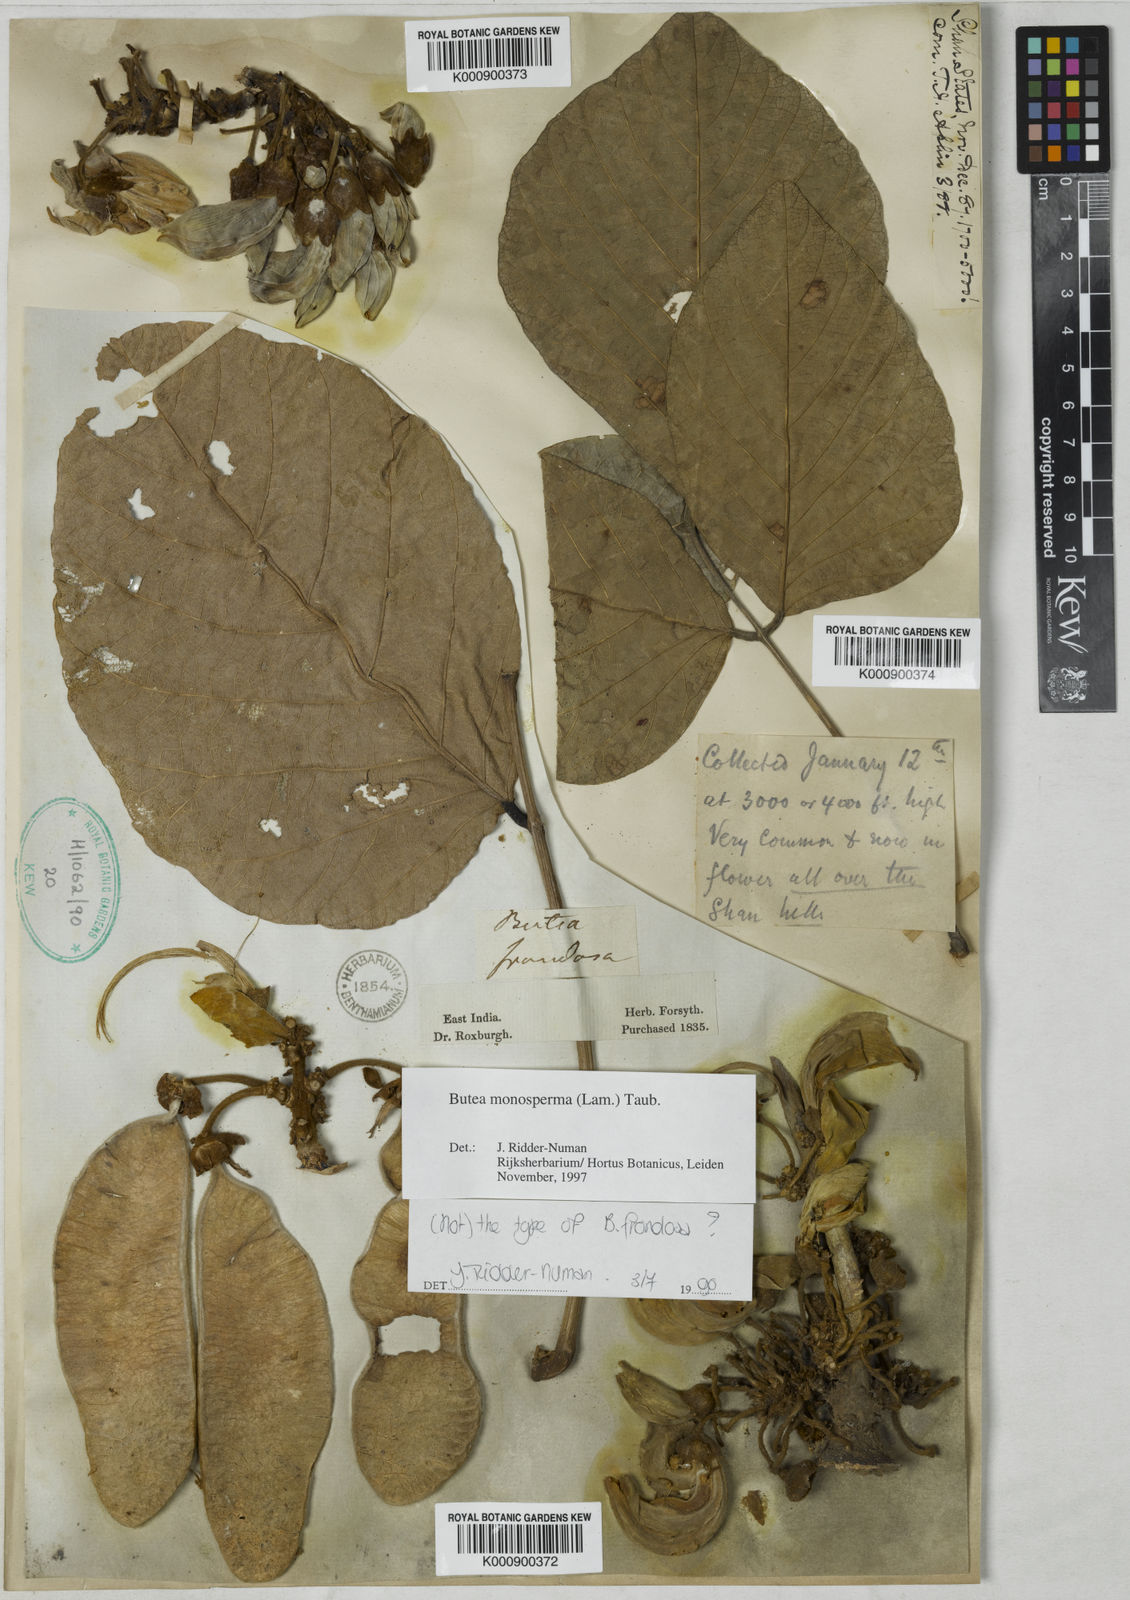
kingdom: Plantae
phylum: Tracheophyta
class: Magnoliopsida
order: Fabales
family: Fabaceae
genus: Butea
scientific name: Butea
